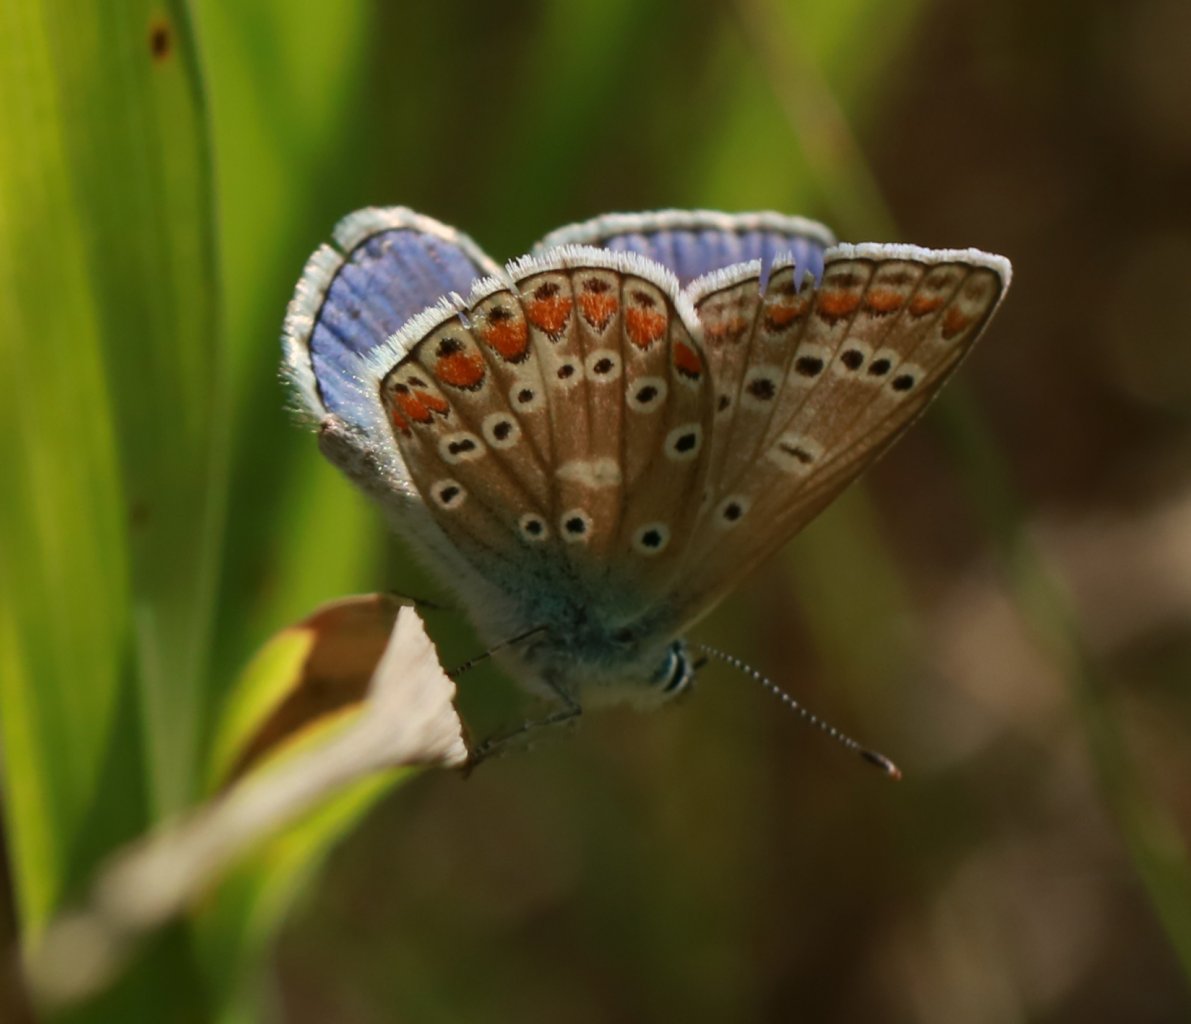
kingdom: Animalia
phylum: Arthropoda
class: Insecta
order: Lepidoptera
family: Lycaenidae
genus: Polyommatus
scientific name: Polyommatus icarus
